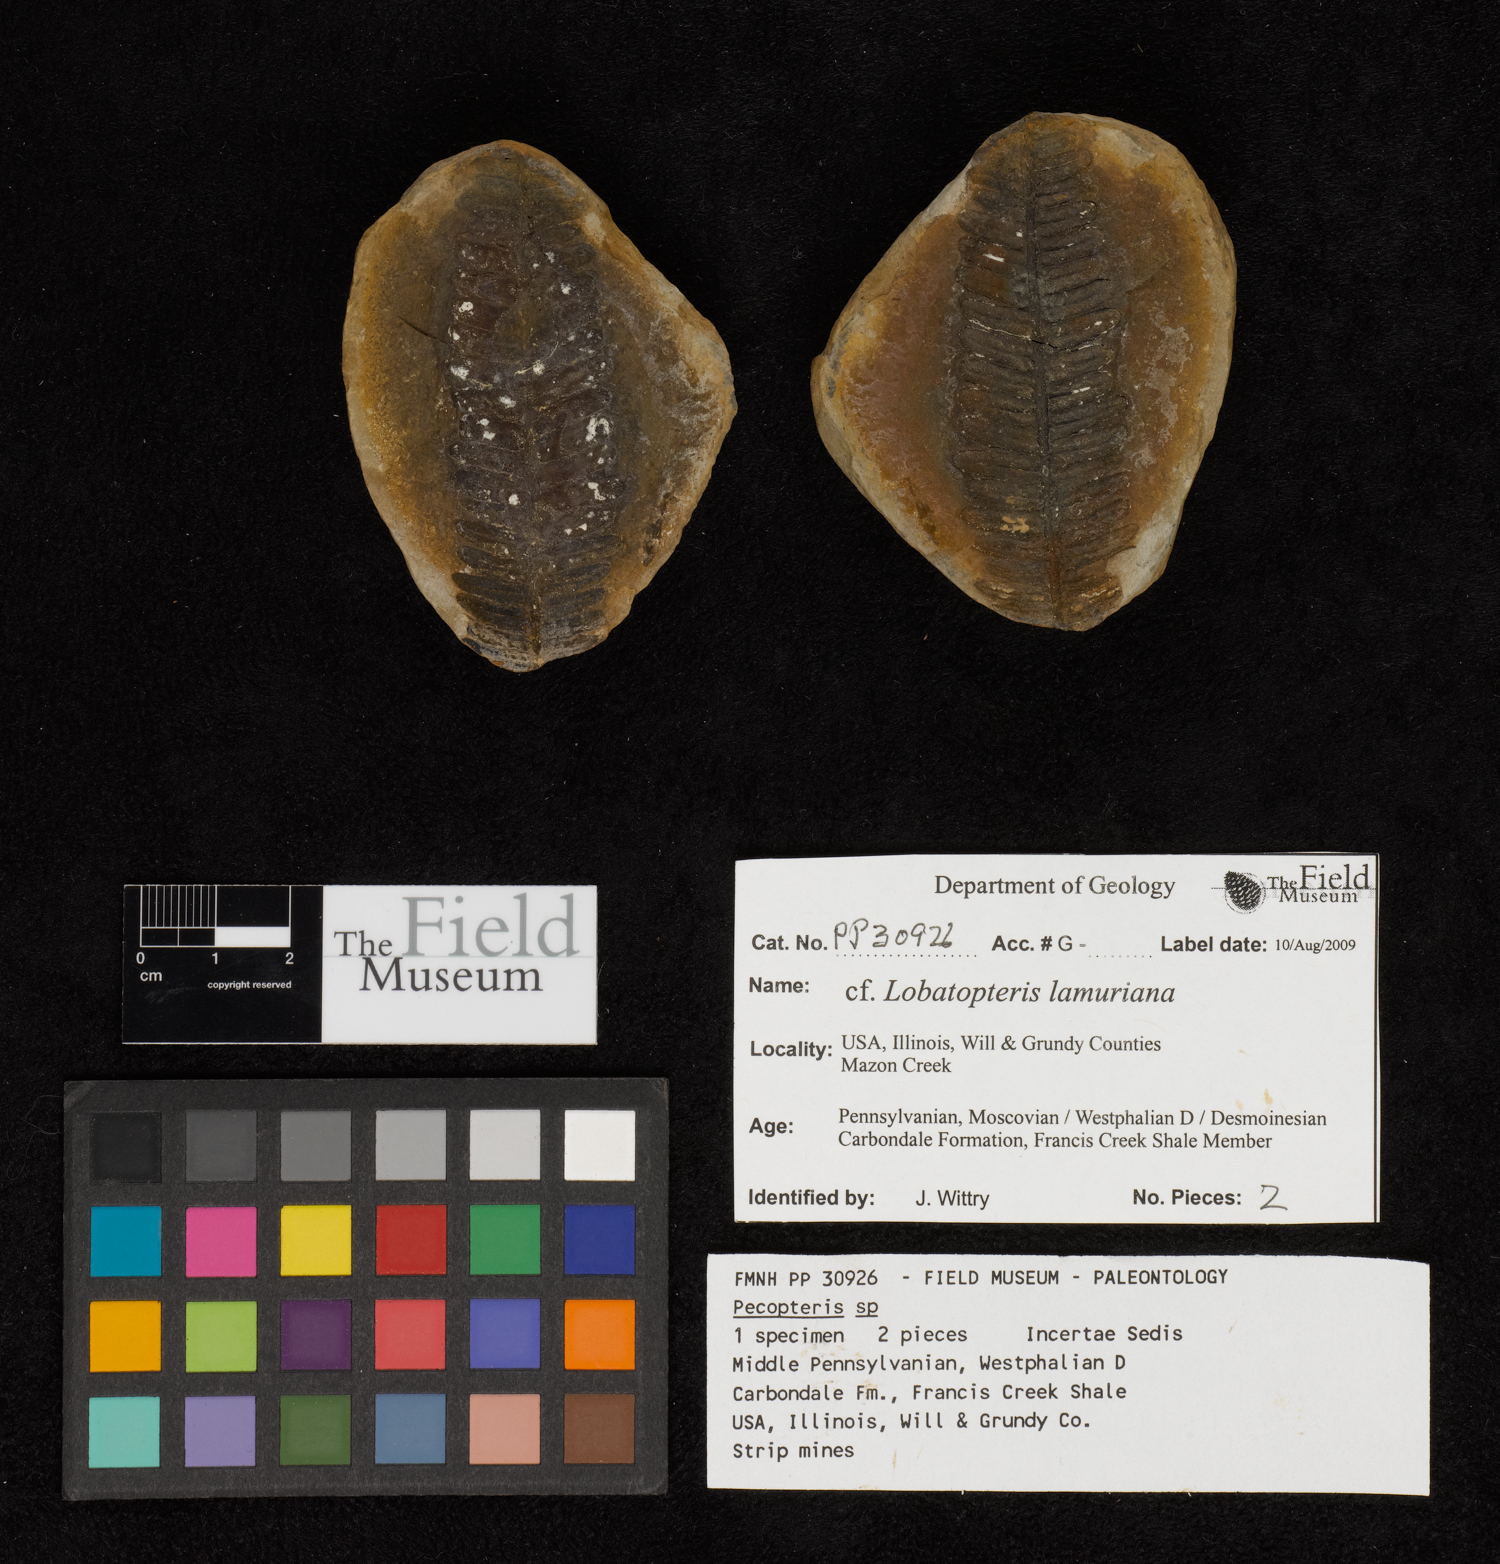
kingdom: Plantae
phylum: Tracheophyta
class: Polypodiopsida
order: Marattiales
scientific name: Marattiales
